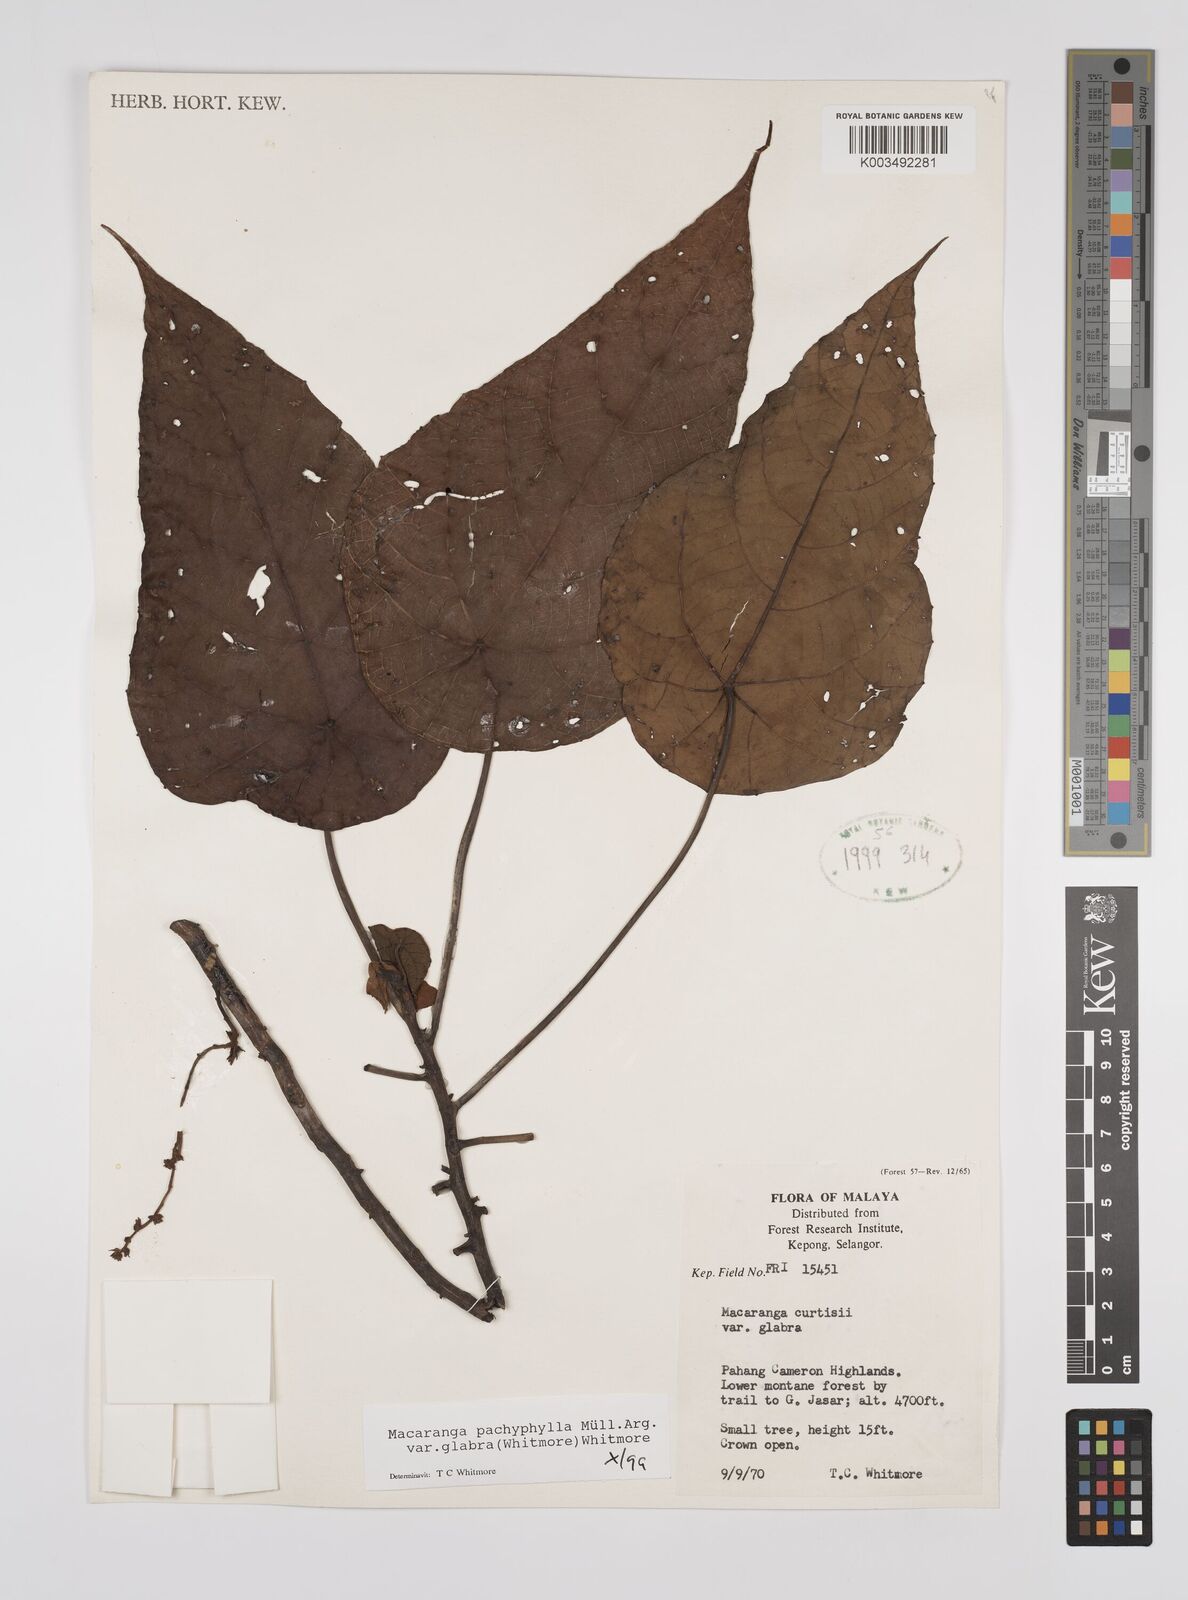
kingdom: Plantae
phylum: Tracheophyta
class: Magnoliopsida
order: Malpighiales
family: Euphorbiaceae
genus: Macaranga
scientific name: Macaranga pachyphylla
